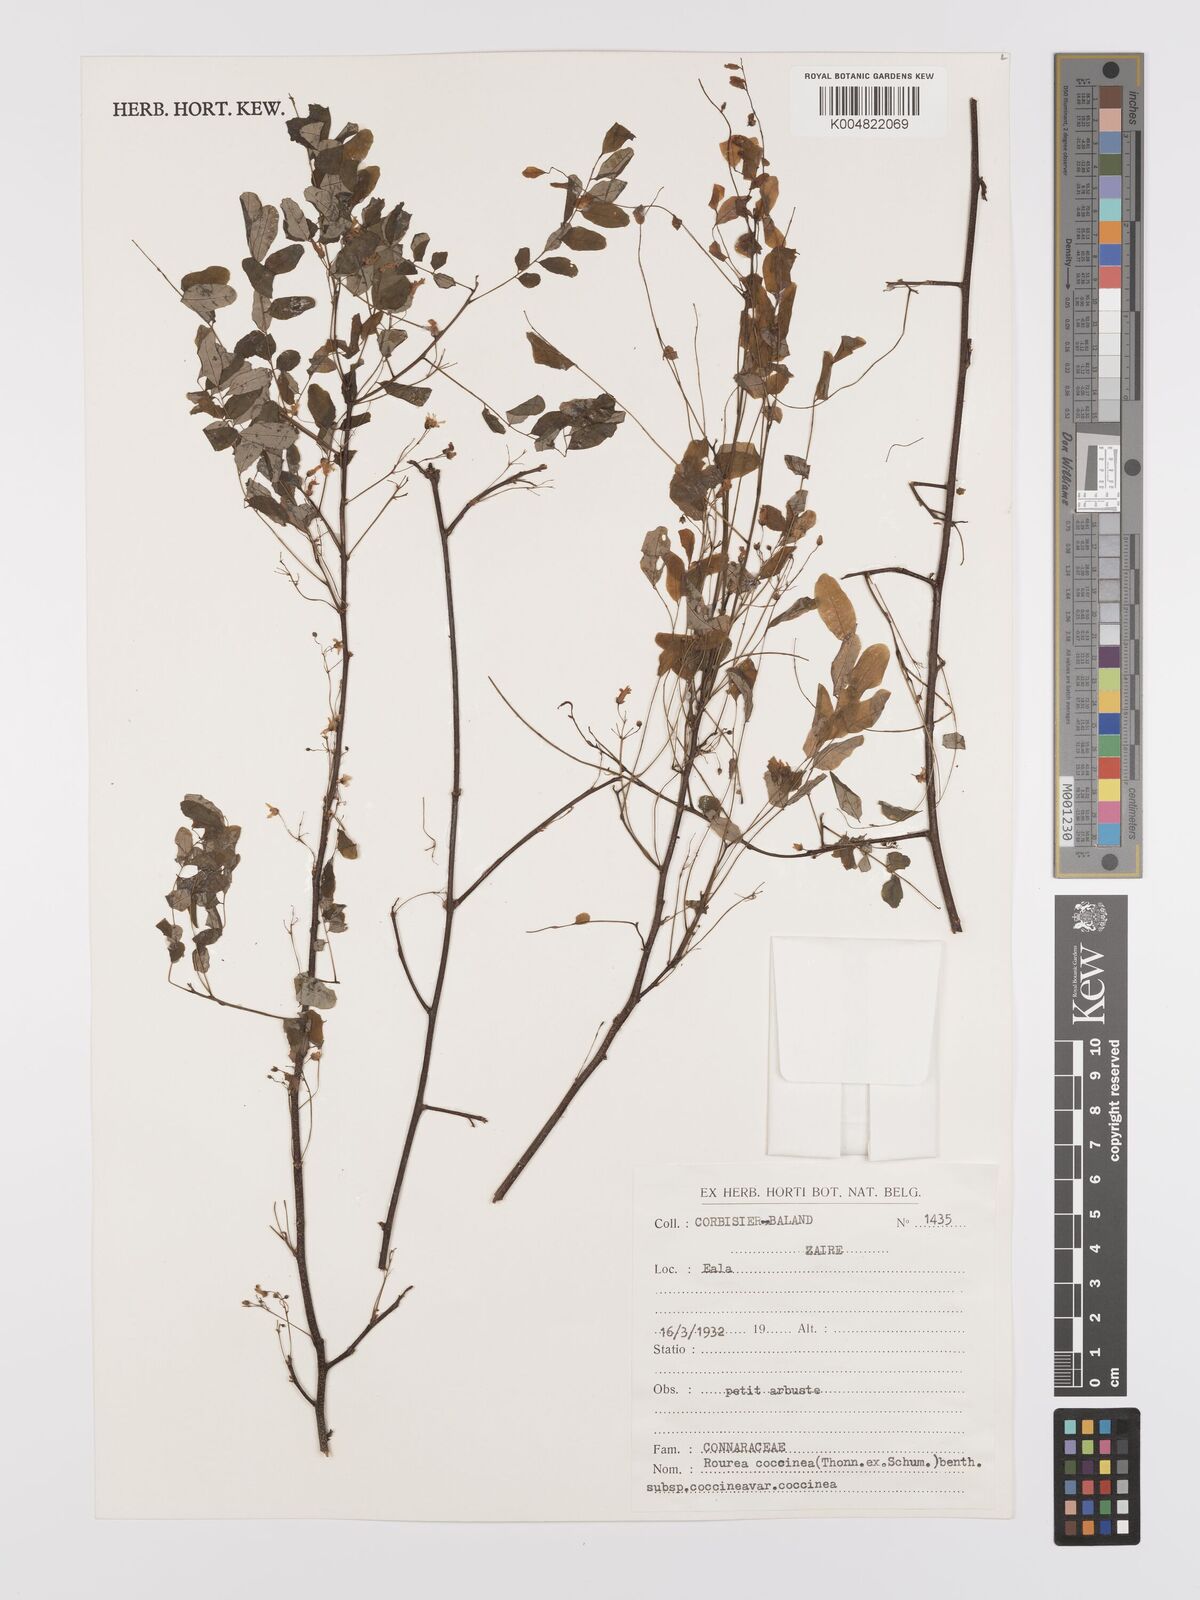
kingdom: Plantae
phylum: Tracheophyta
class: Magnoliopsida
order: Oxalidales
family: Connaraceae
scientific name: Connaraceae
